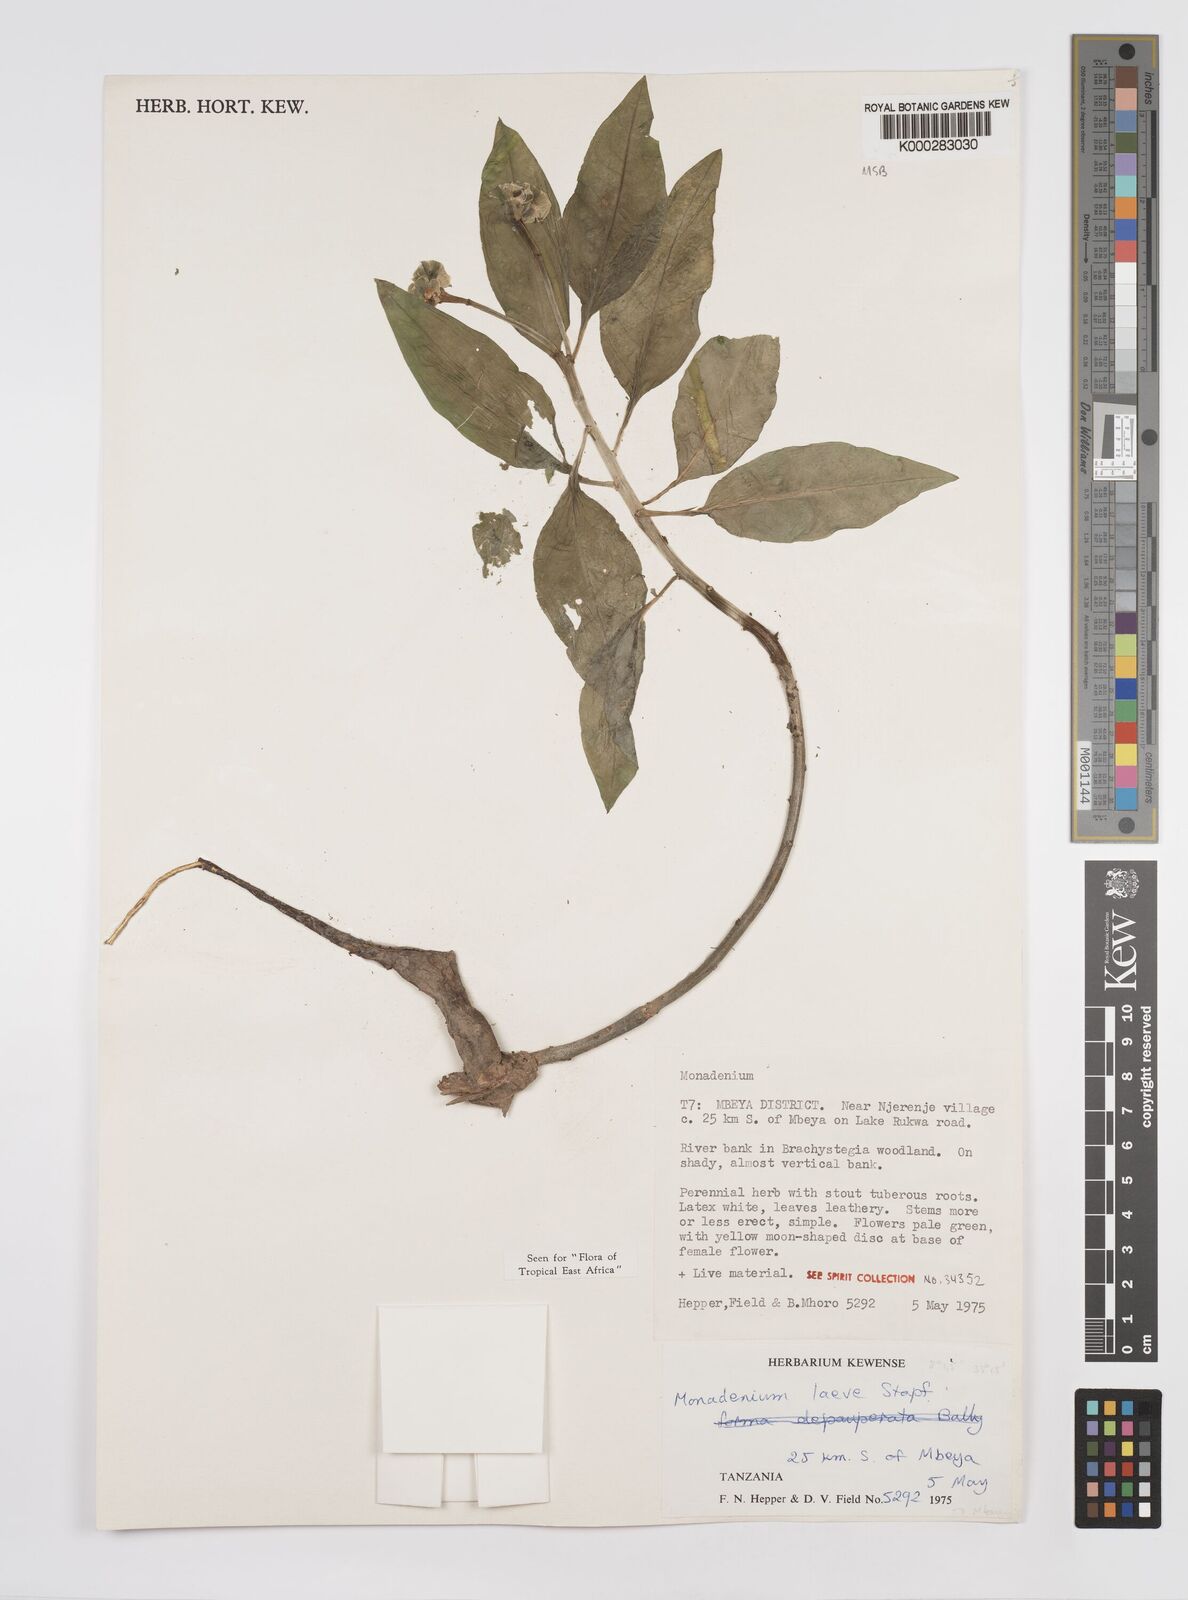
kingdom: Plantae
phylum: Tracheophyta
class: Magnoliopsida
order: Malpighiales
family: Euphorbiaceae
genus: Euphorbia
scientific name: Euphorbia pseudolaevis
